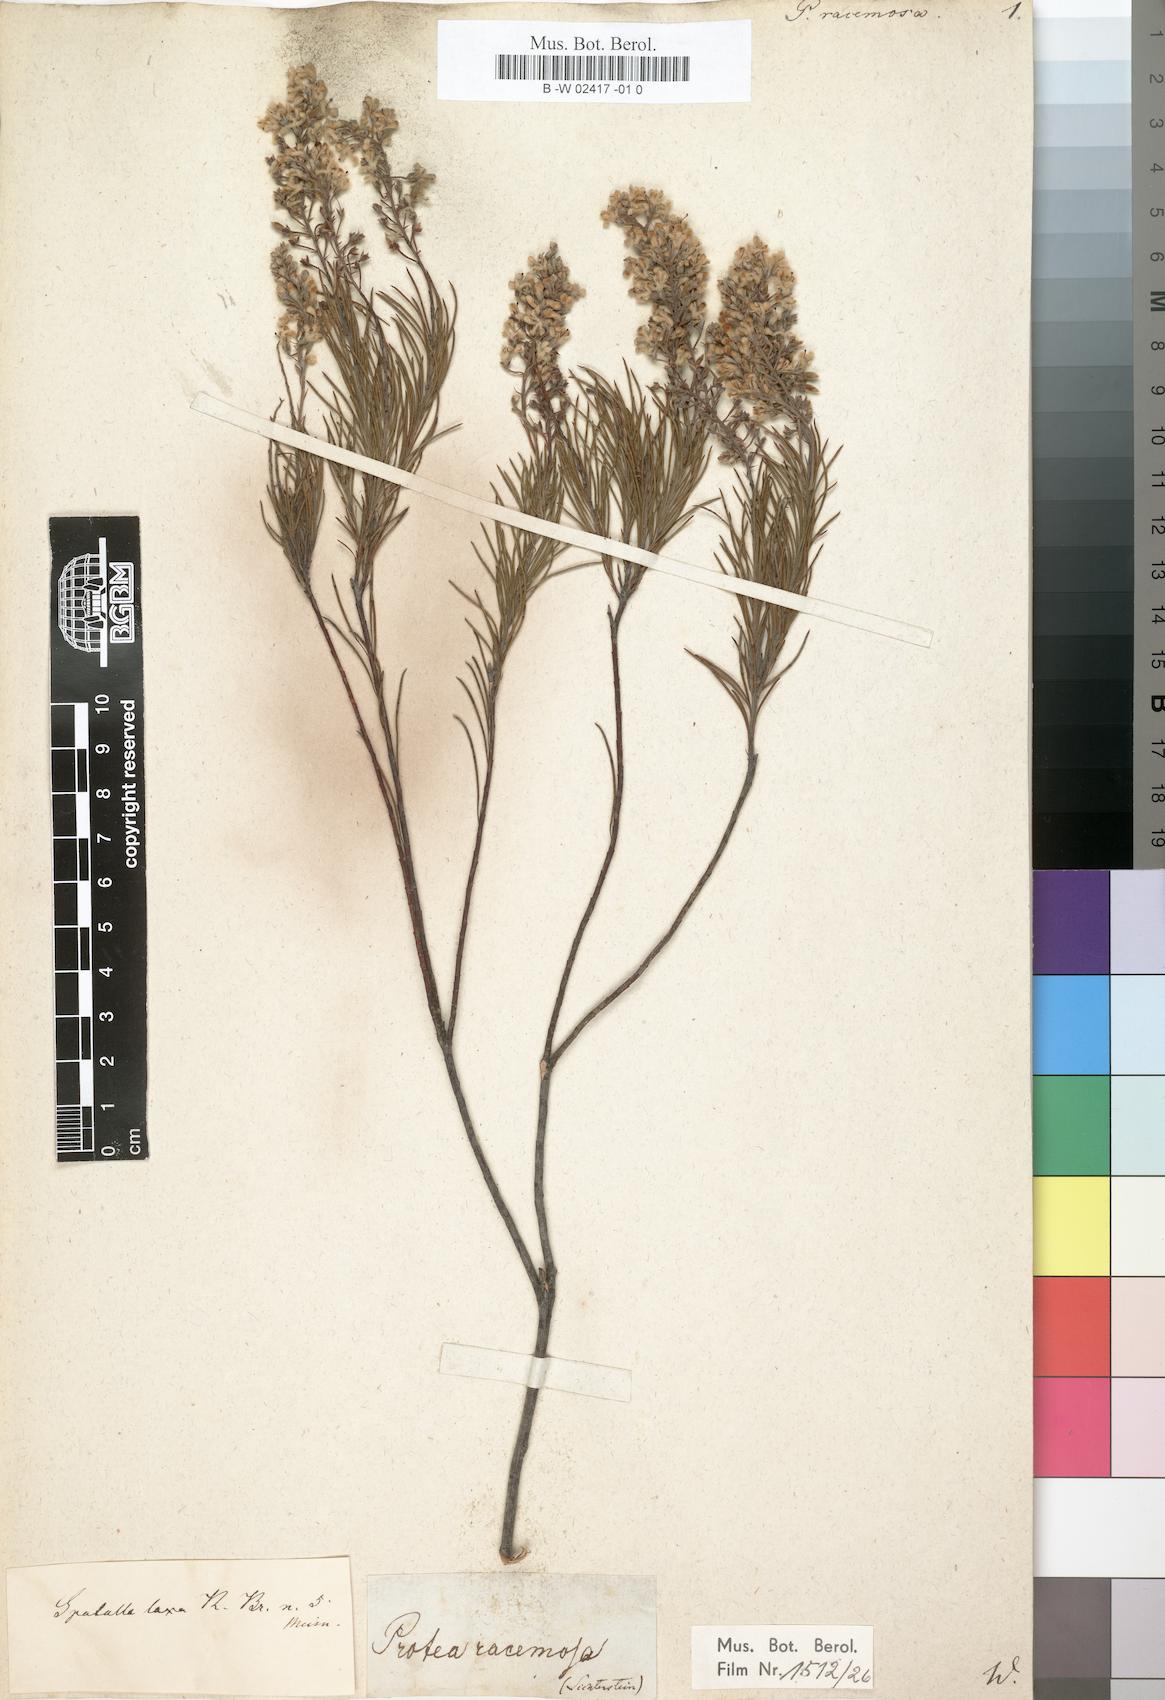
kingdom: Plantae
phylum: Tracheophyta
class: Magnoliopsida
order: Proteales
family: Proteaceae
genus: Spatalla
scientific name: Spatalla racemosa
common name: Lax-stalked spoon
